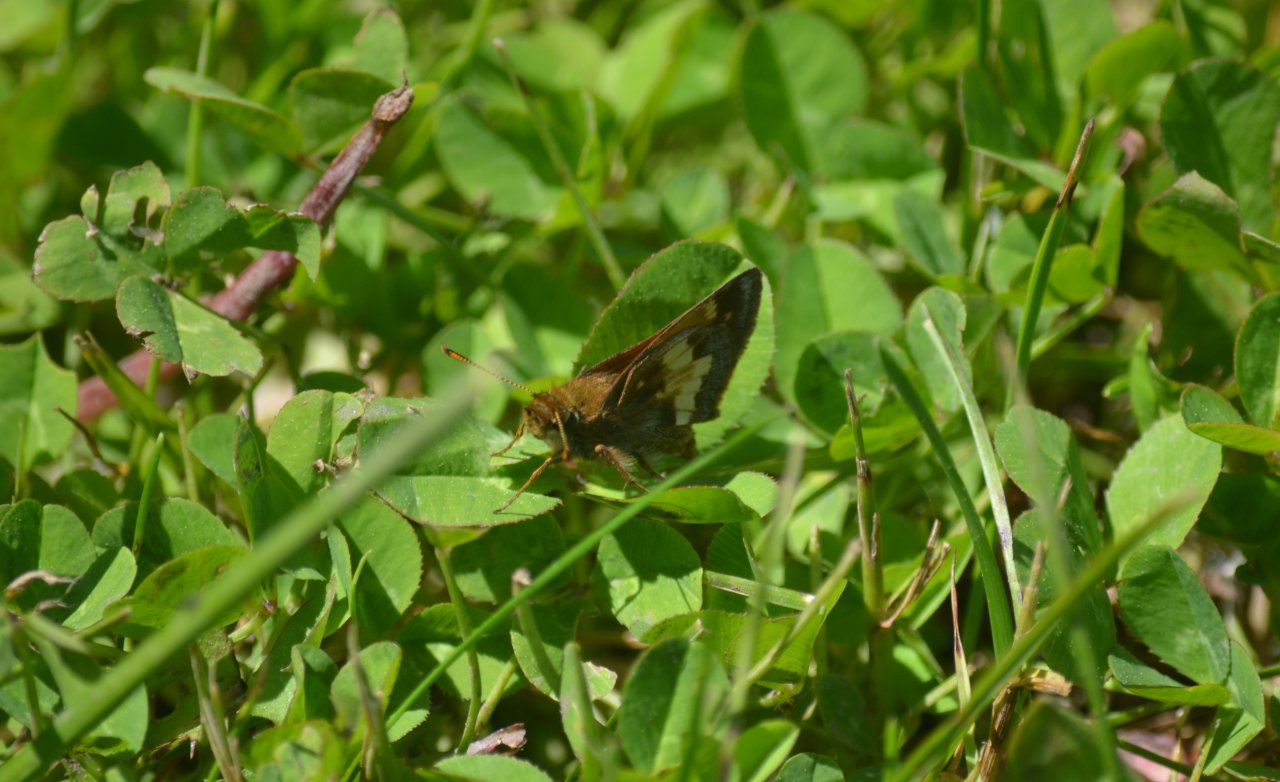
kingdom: Animalia
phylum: Arthropoda
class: Insecta
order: Lepidoptera
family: Hesperiidae
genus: Lon
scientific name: Lon hobomok
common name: Hobomok Skipper
